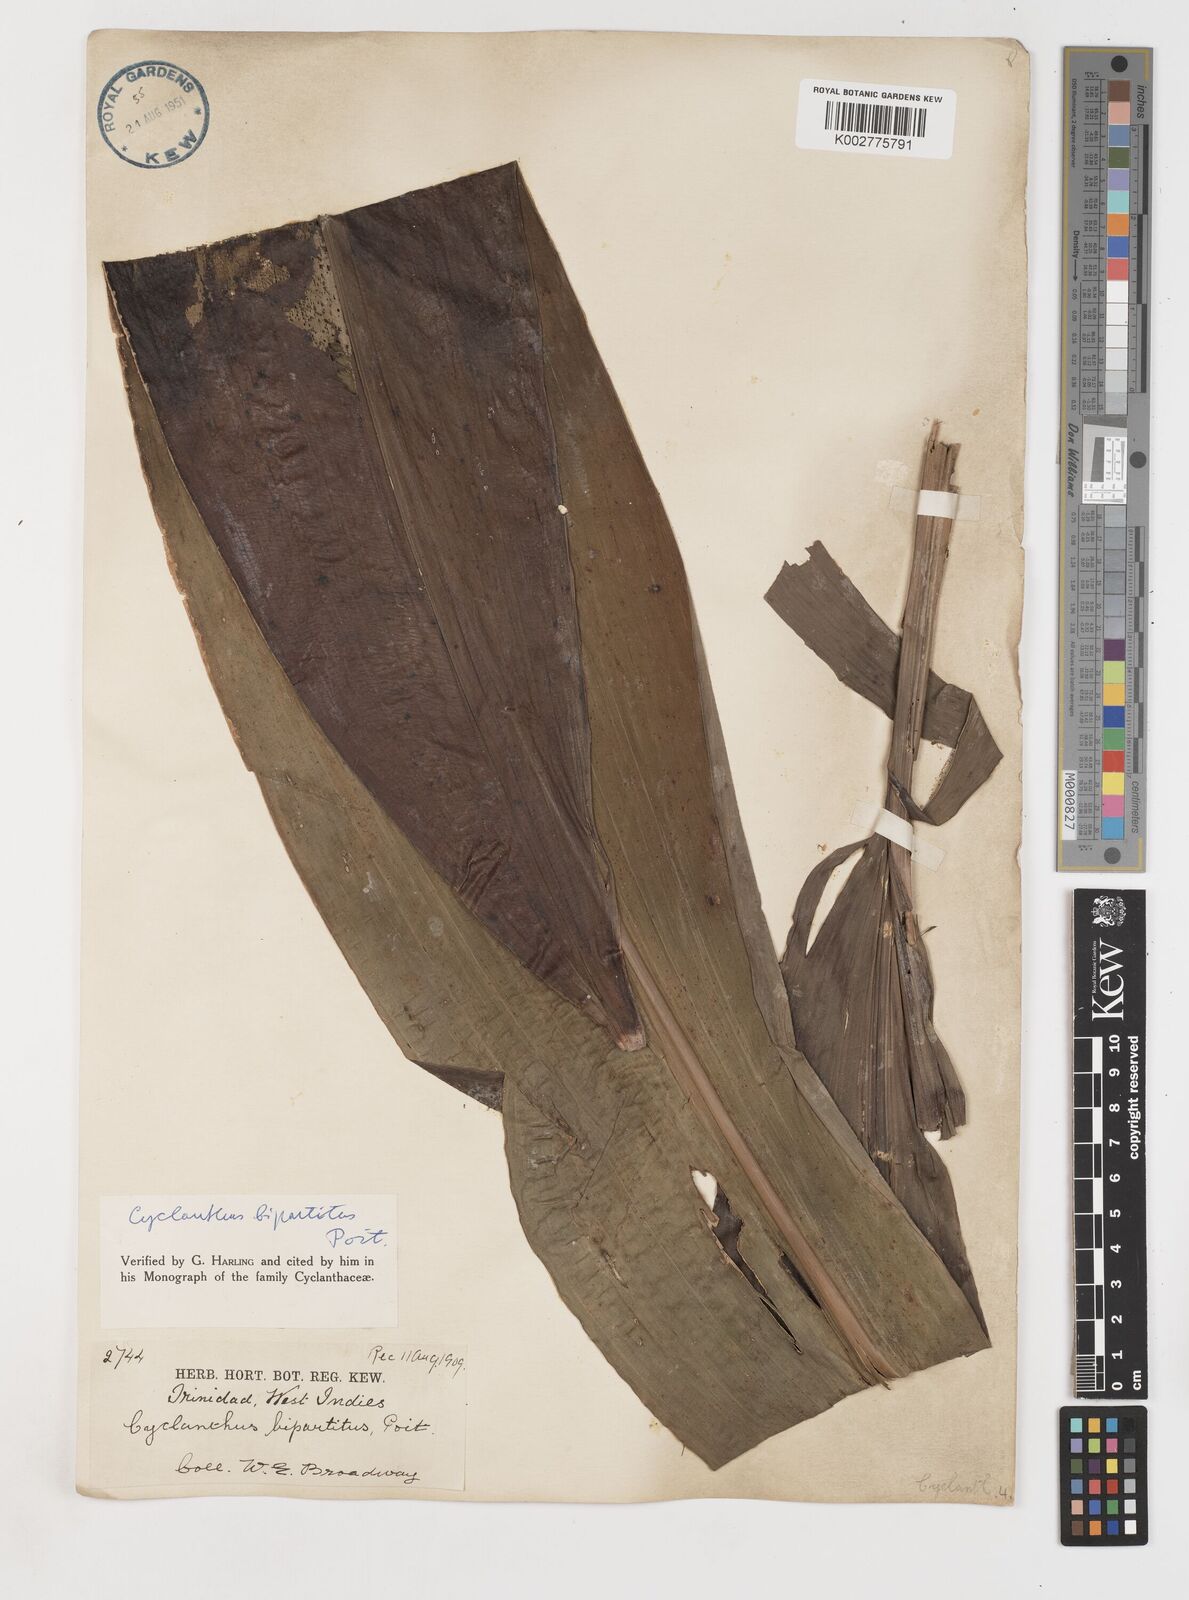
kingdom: Plantae
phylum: Tracheophyta
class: Liliopsida
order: Pandanales
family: Cyclanthaceae
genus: Cyclanthus
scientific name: Cyclanthus bipartitus
